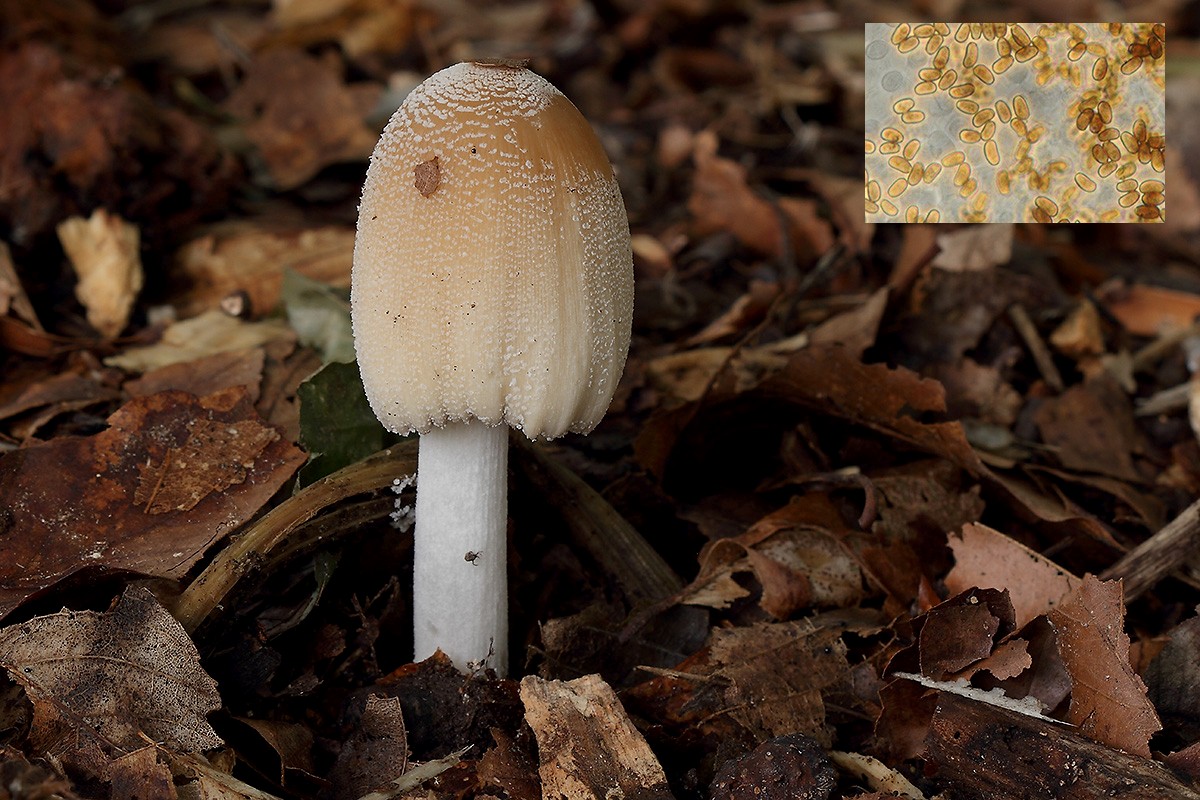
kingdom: Fungi
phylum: Basidiomycota
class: Agaricomycetes
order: Agaricales
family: Psathyrellaceae
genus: Coprinellus
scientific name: Coprinellus domesticus
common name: hus-blækhat
